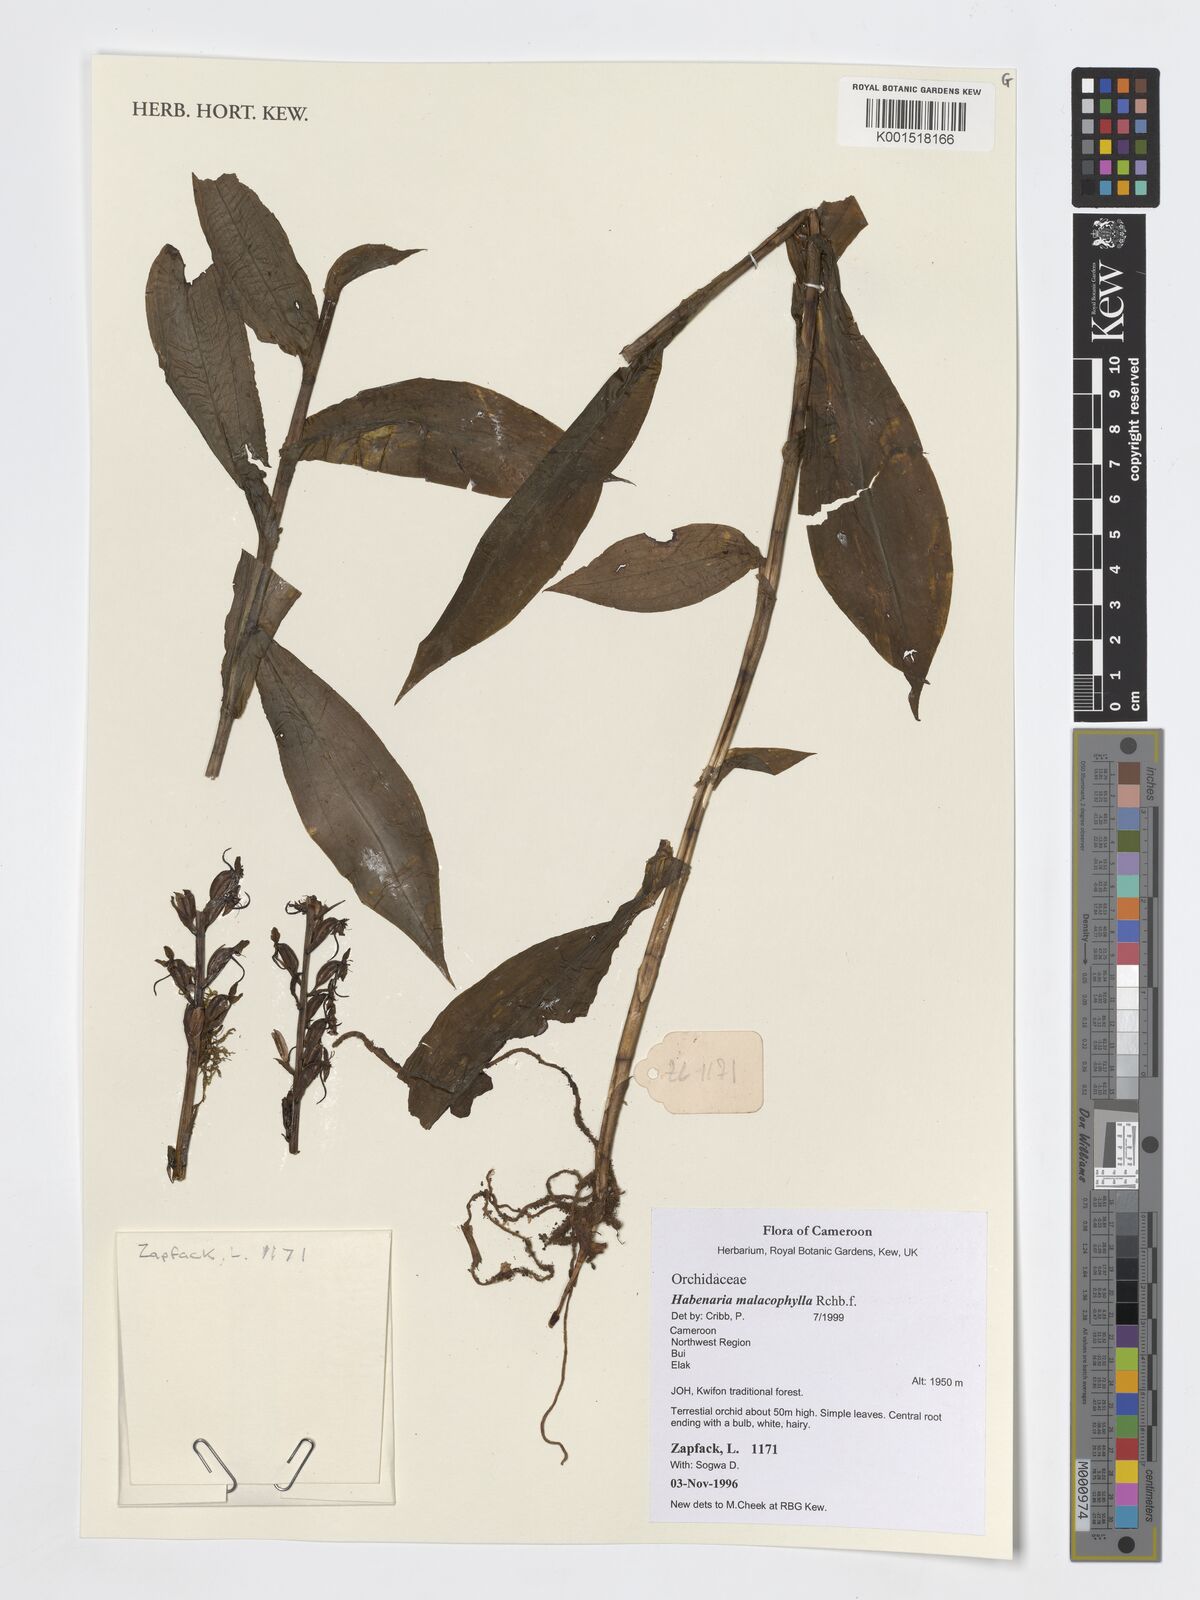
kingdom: Plantae
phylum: Tracheophyta
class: Liliopsida
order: Asparagales
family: Orchidaceae
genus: Habenaria
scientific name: Habenaria malacophylla
